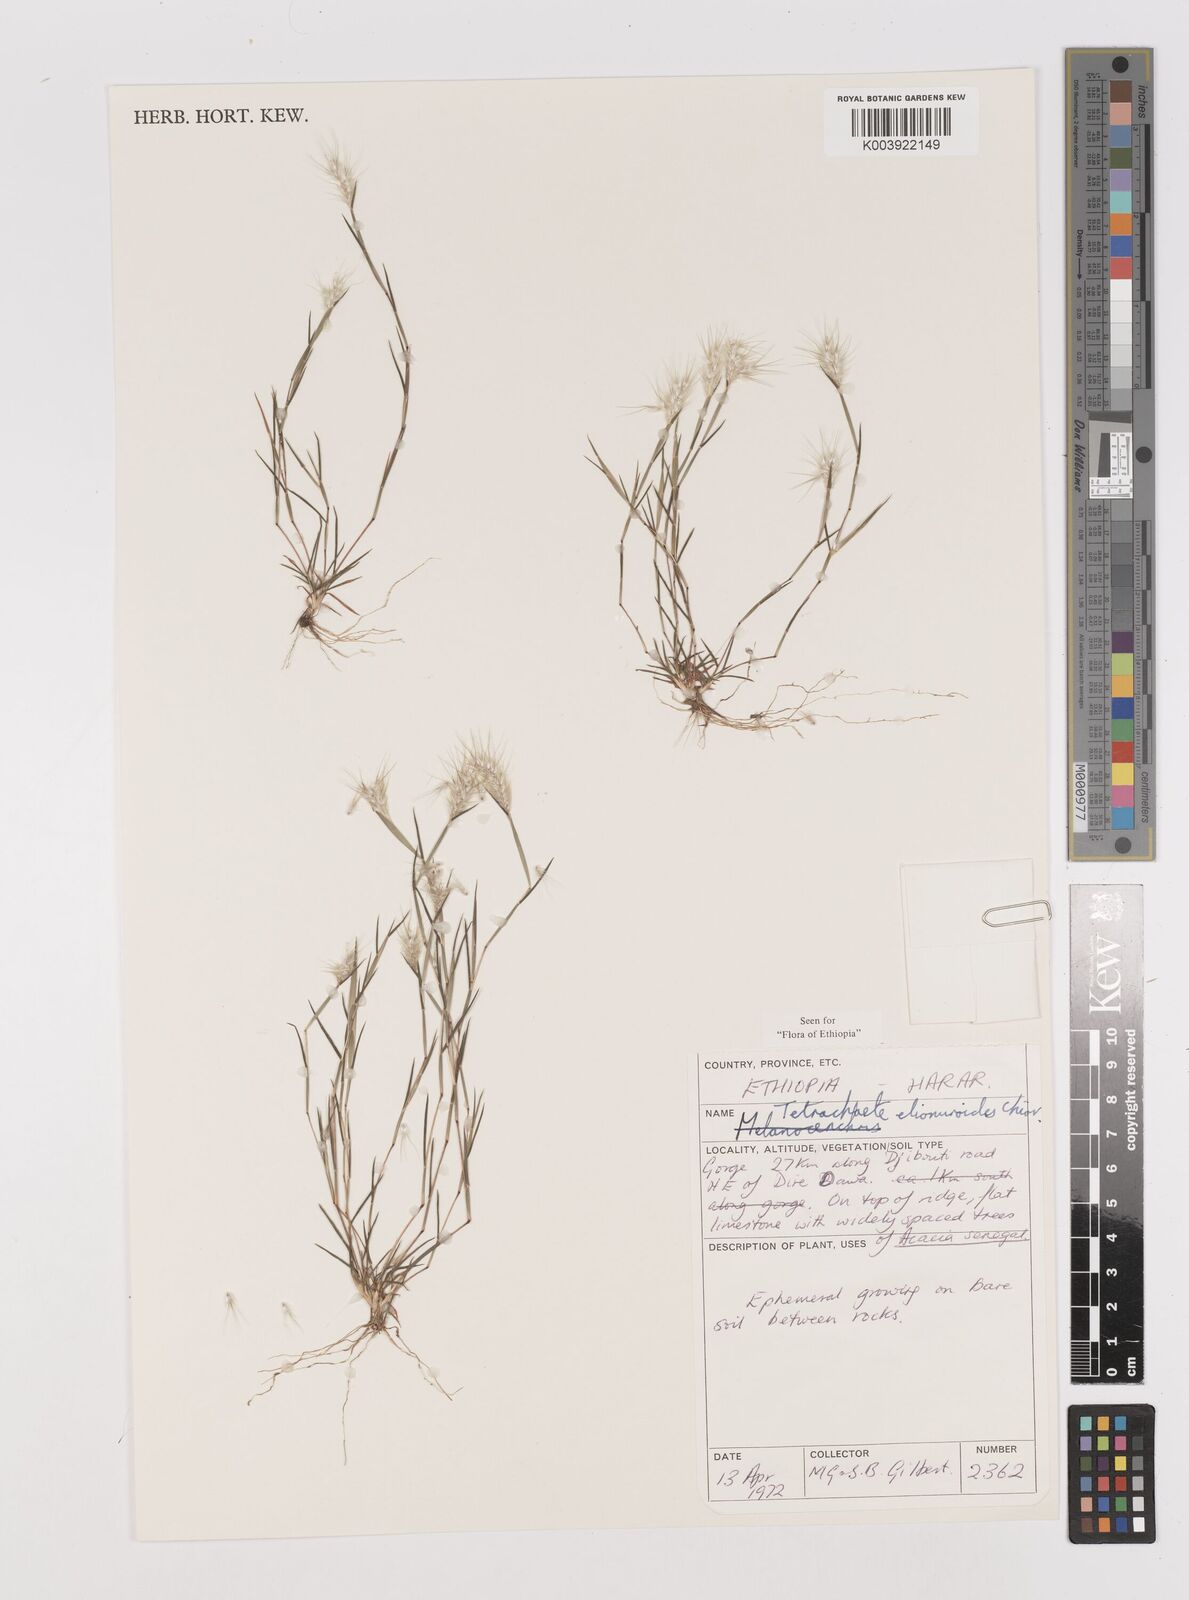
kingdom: Plantae
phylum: Tracheophyta
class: Liliopsida
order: Poales
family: Poaceae
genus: Tetrachaete
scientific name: Tetrachaete elionuroides
